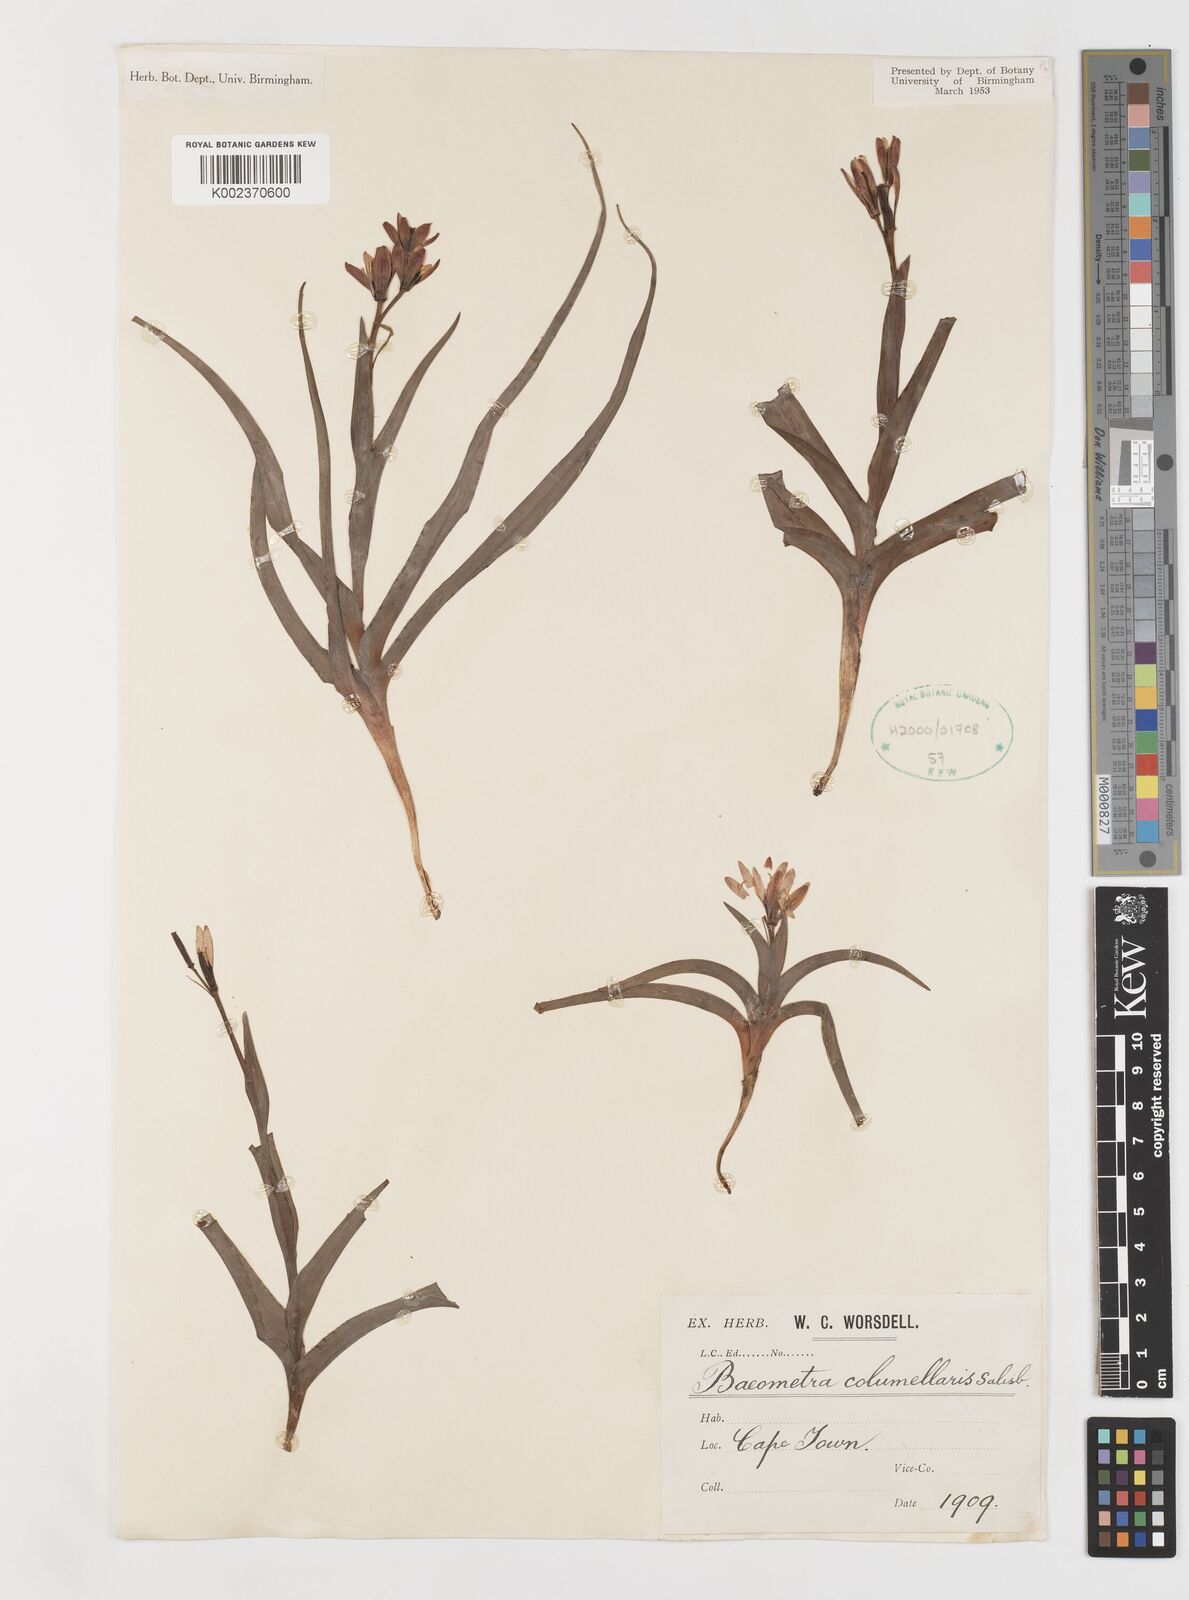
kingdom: Plantae
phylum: Tracheophyta
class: Liliopsida
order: Liliales
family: Colchicaceae
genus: Baeometra
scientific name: Baeometra uniflora
